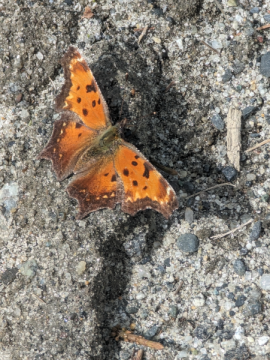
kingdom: Animalia
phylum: Arthropoda
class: Insecta
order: Lepidoptera
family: Nymphalidae
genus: Polygonia
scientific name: Polygonia progne
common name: Gray Comma
